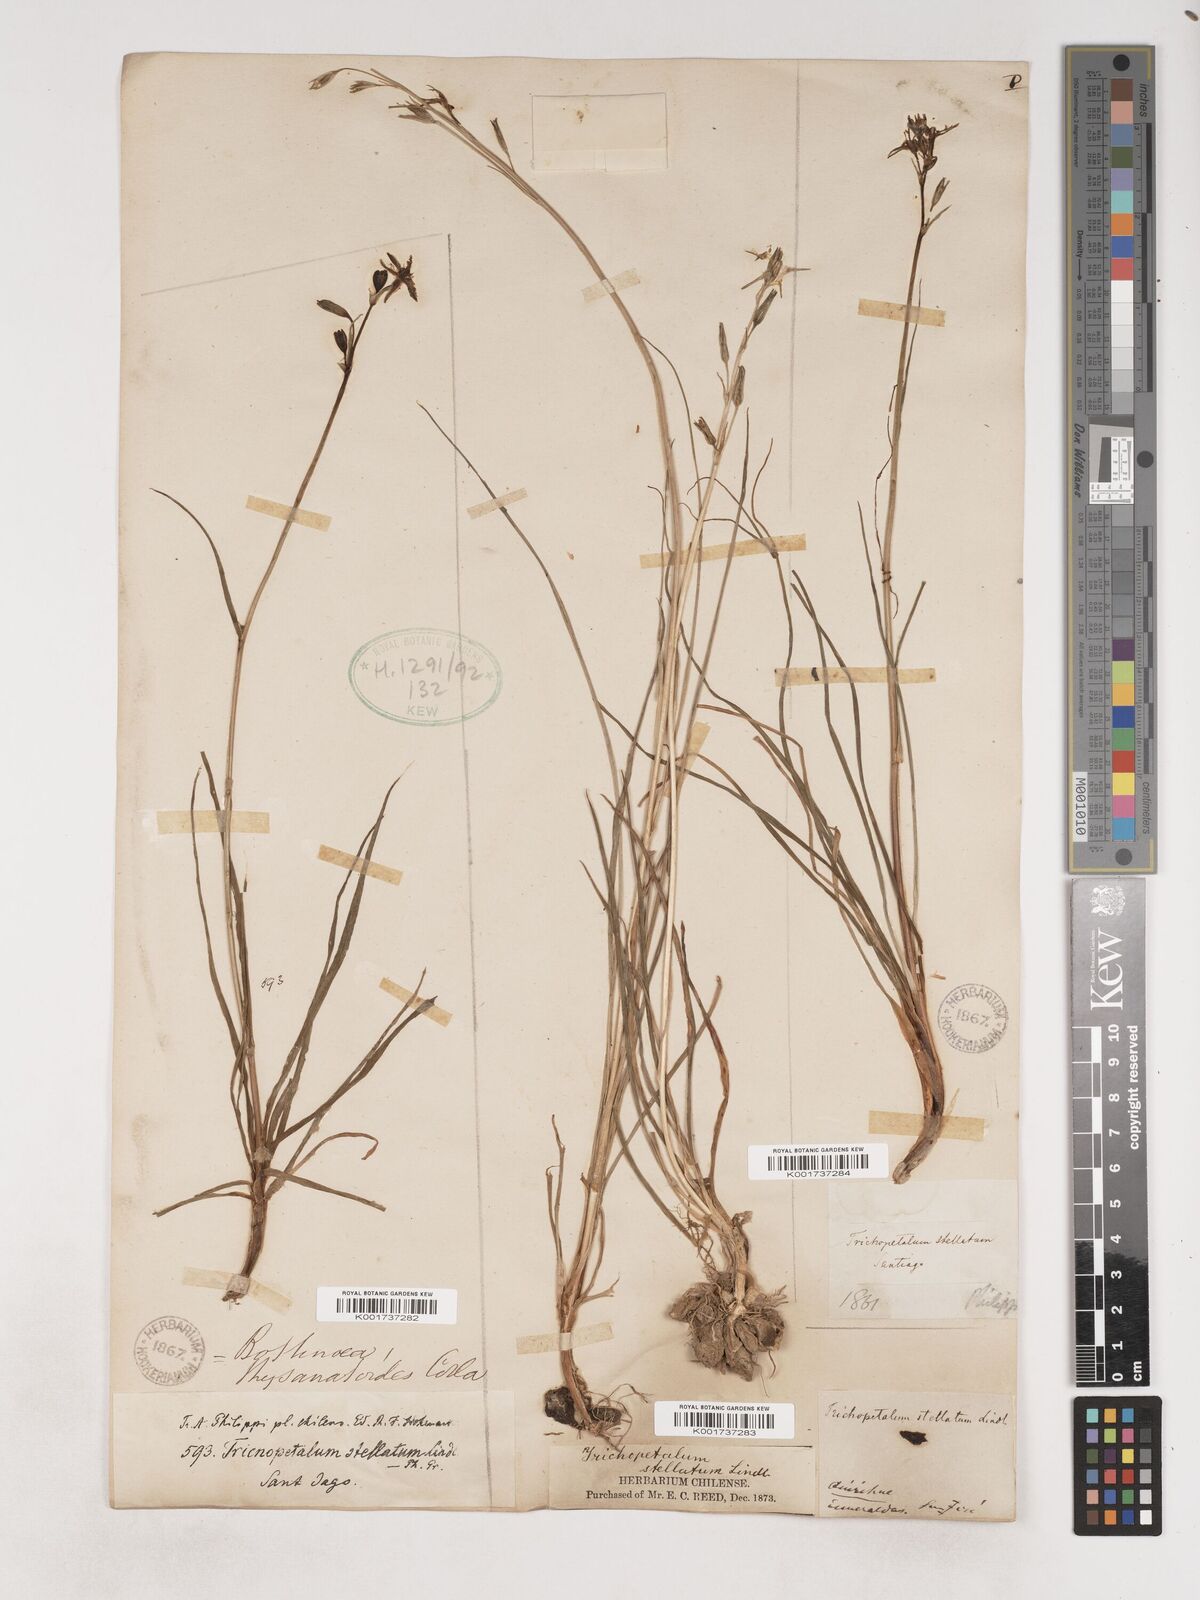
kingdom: Plantae
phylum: Tracheophyta
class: Liliopsida
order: Asparagales
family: Asparagaceae
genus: Trichopetalum
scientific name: Trichopetalum plumosum
